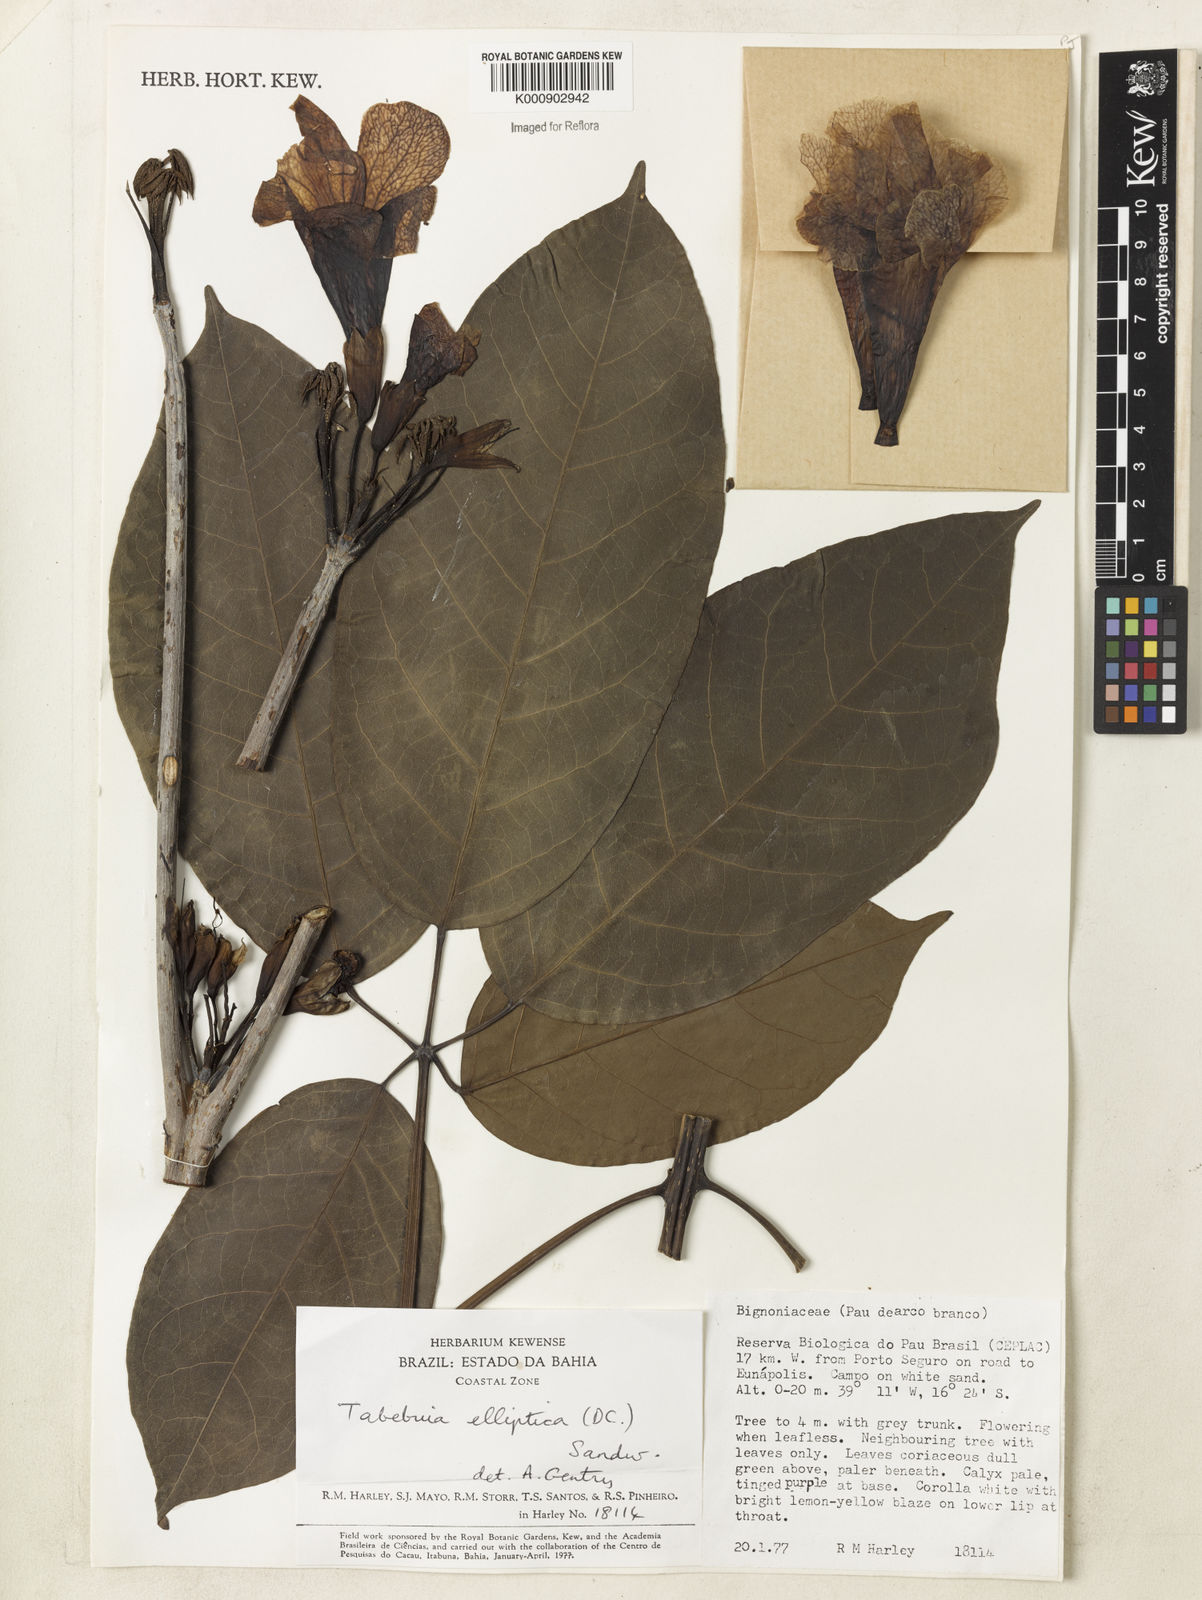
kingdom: Plantae
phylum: Tracheophyta
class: Magnoliopsida
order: Lamiales
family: Bignoniaceae
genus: Tabebuia
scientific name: Tabebuia elliptica
